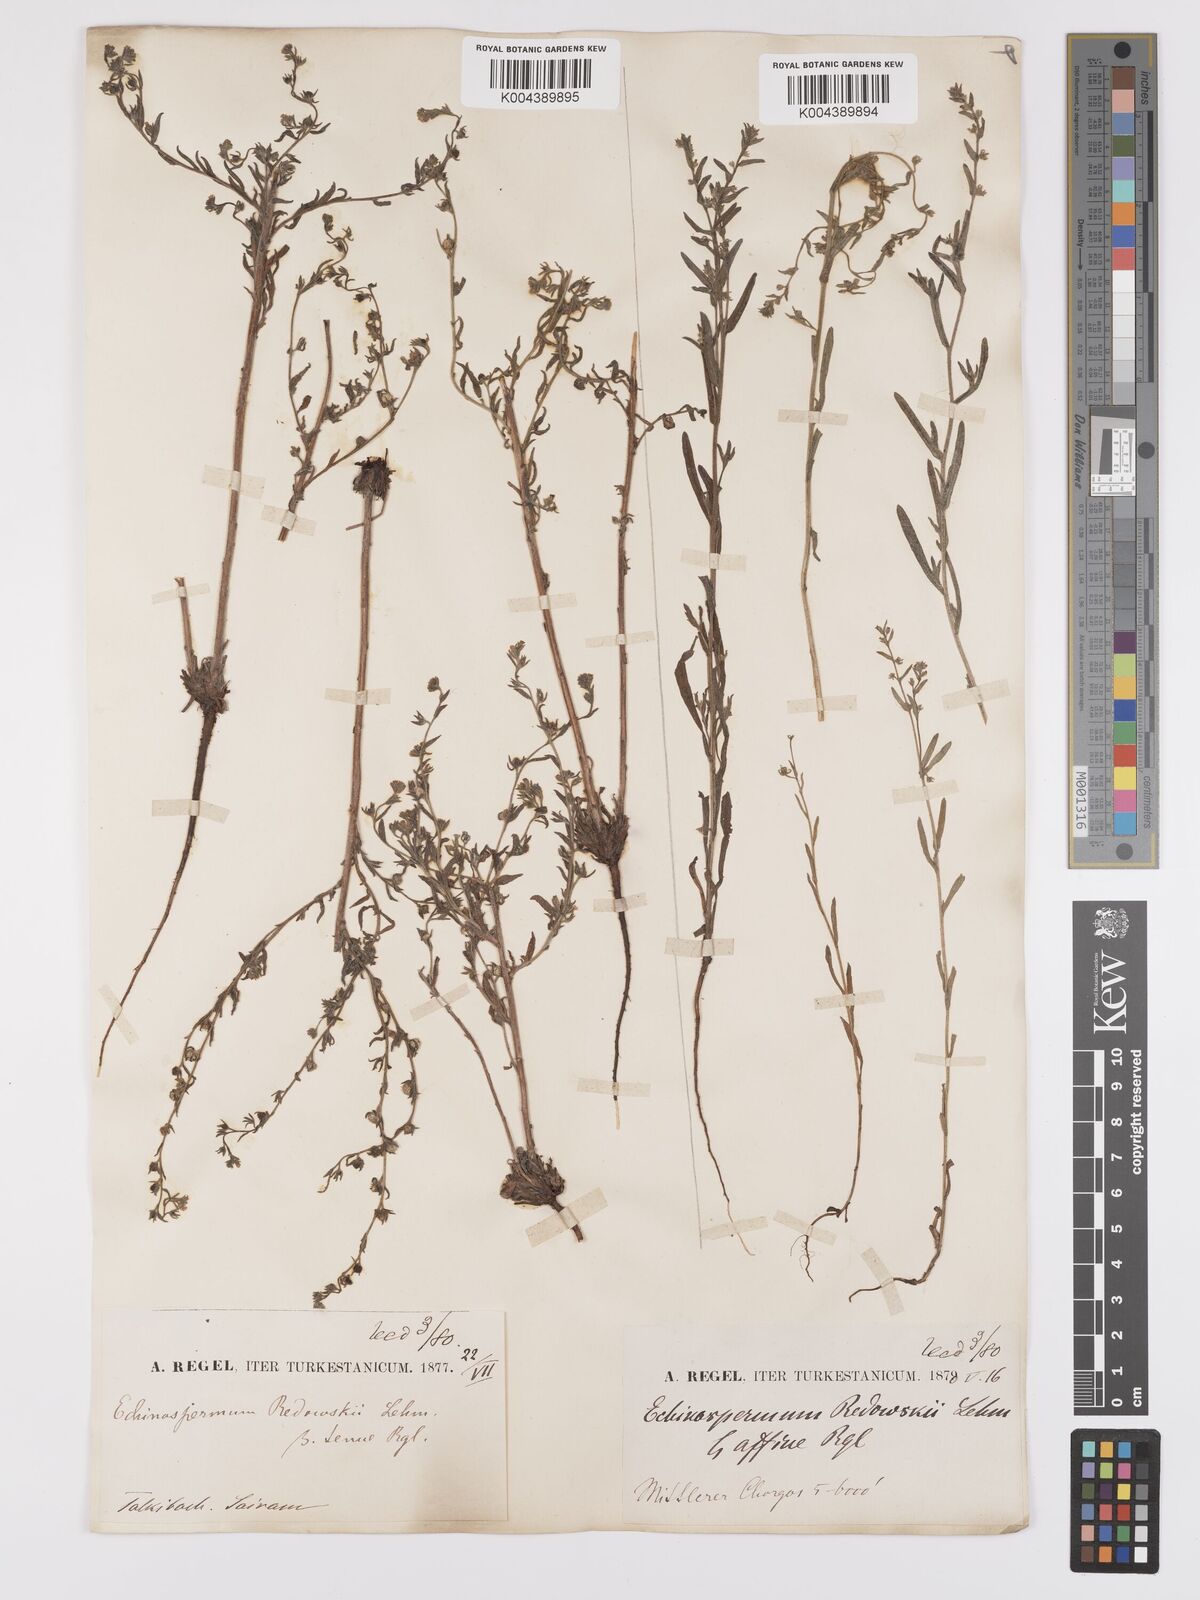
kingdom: Plantae
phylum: Tracheophyta
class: Magnoliopsida
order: Boraginales
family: Boraginaceae
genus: Lappula
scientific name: Lappula redowskii
